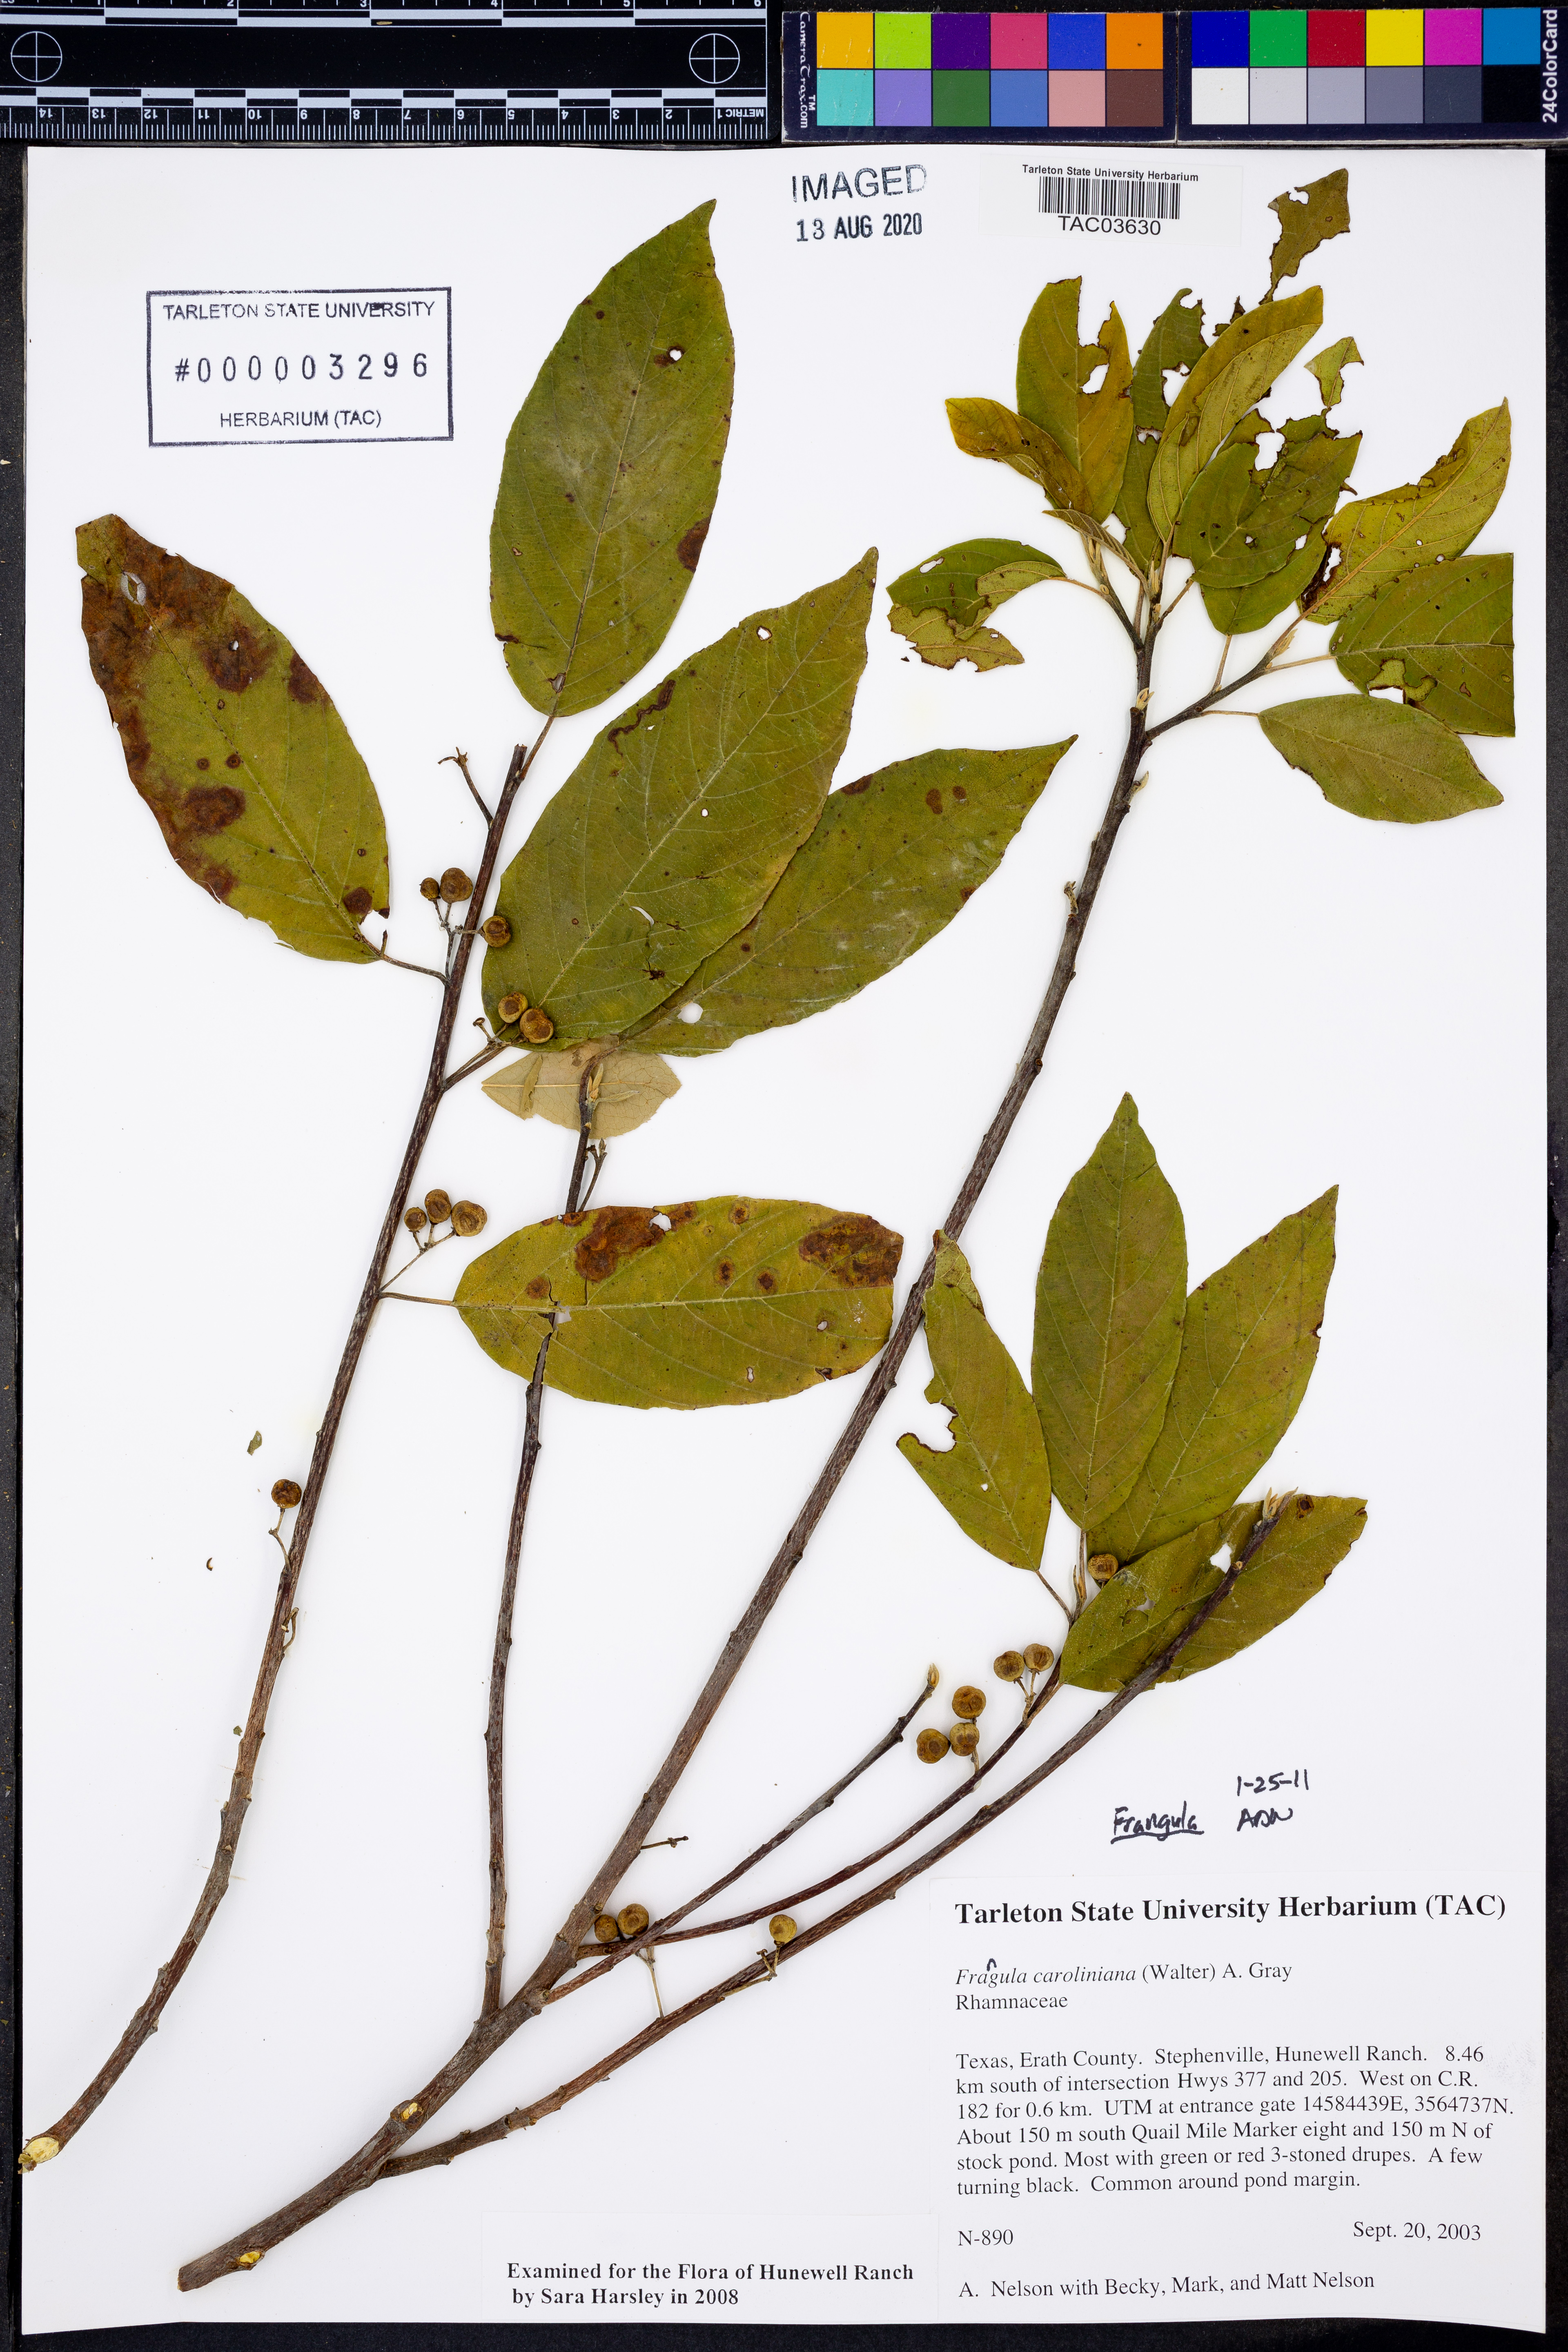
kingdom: Plantae
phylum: Tracheophyta
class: Magnoliopsida
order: Rosales
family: Rhamnaceae
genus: Frangula
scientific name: Frangula caroliniana
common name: Carolina buckthorn
